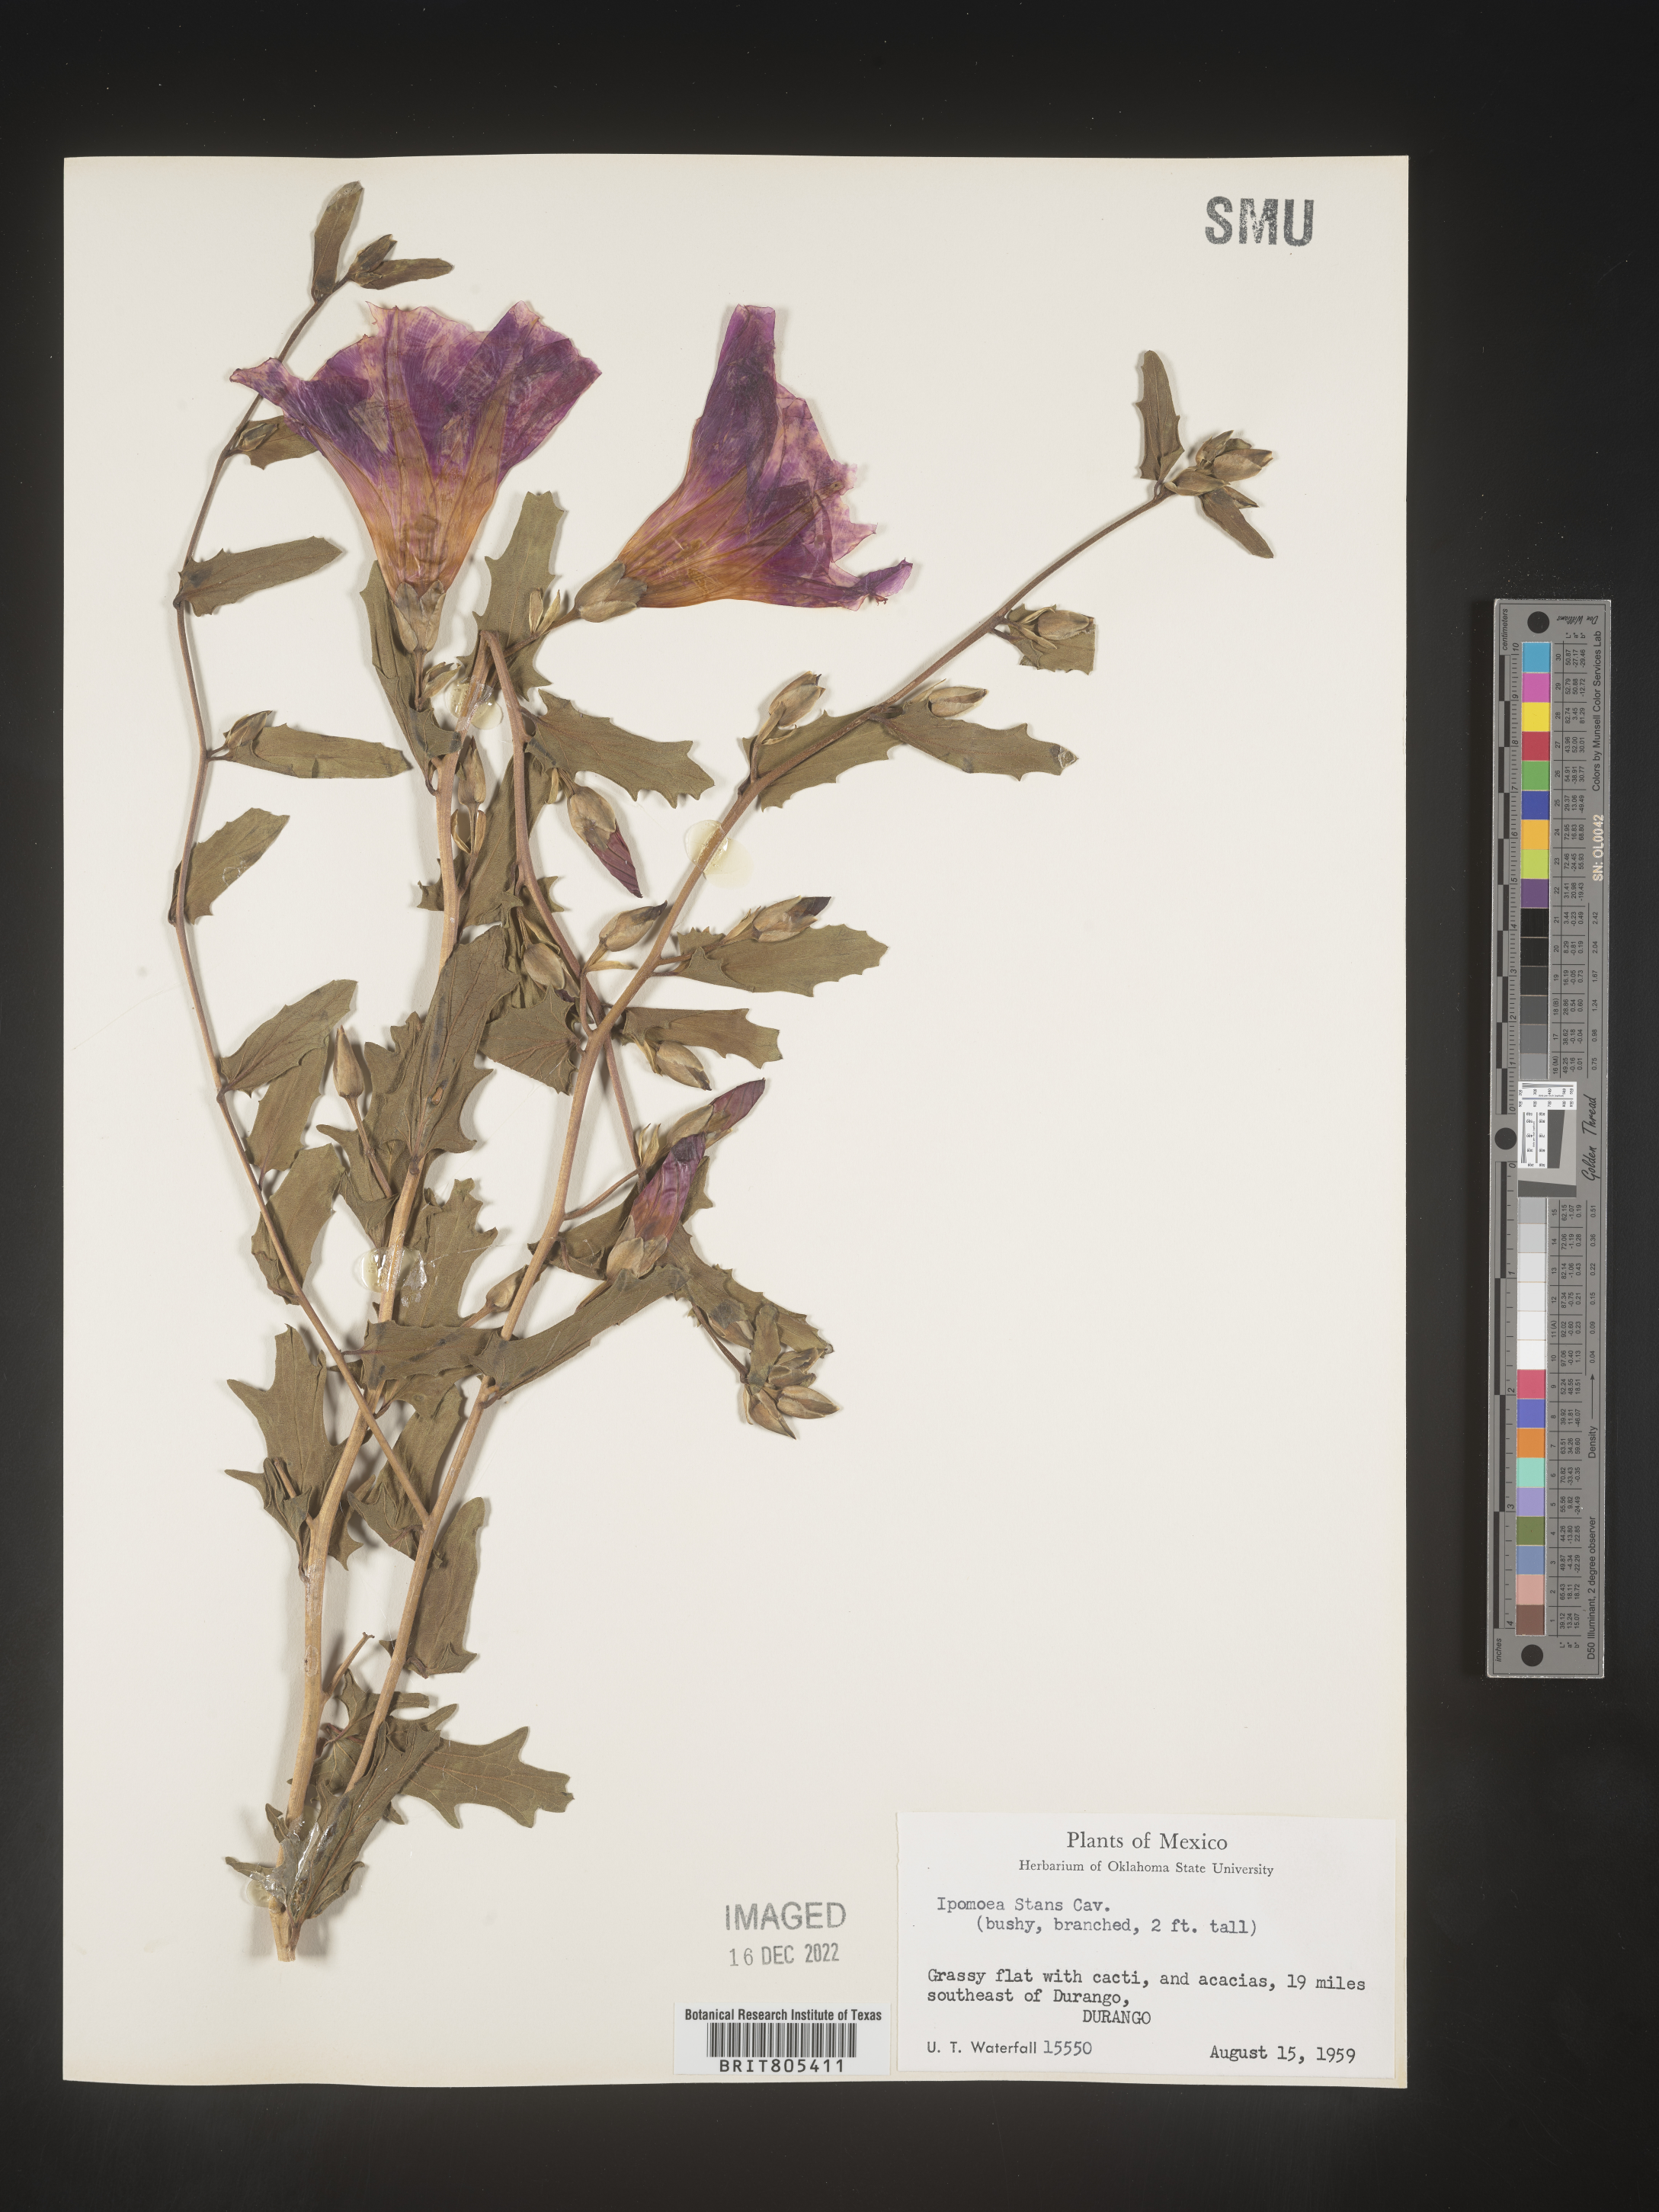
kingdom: Plantae
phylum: Tracheophyta
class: Magnoliopsida
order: Solanales
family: Convolvulaceae
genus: Ipomoea
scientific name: Ipomoea
